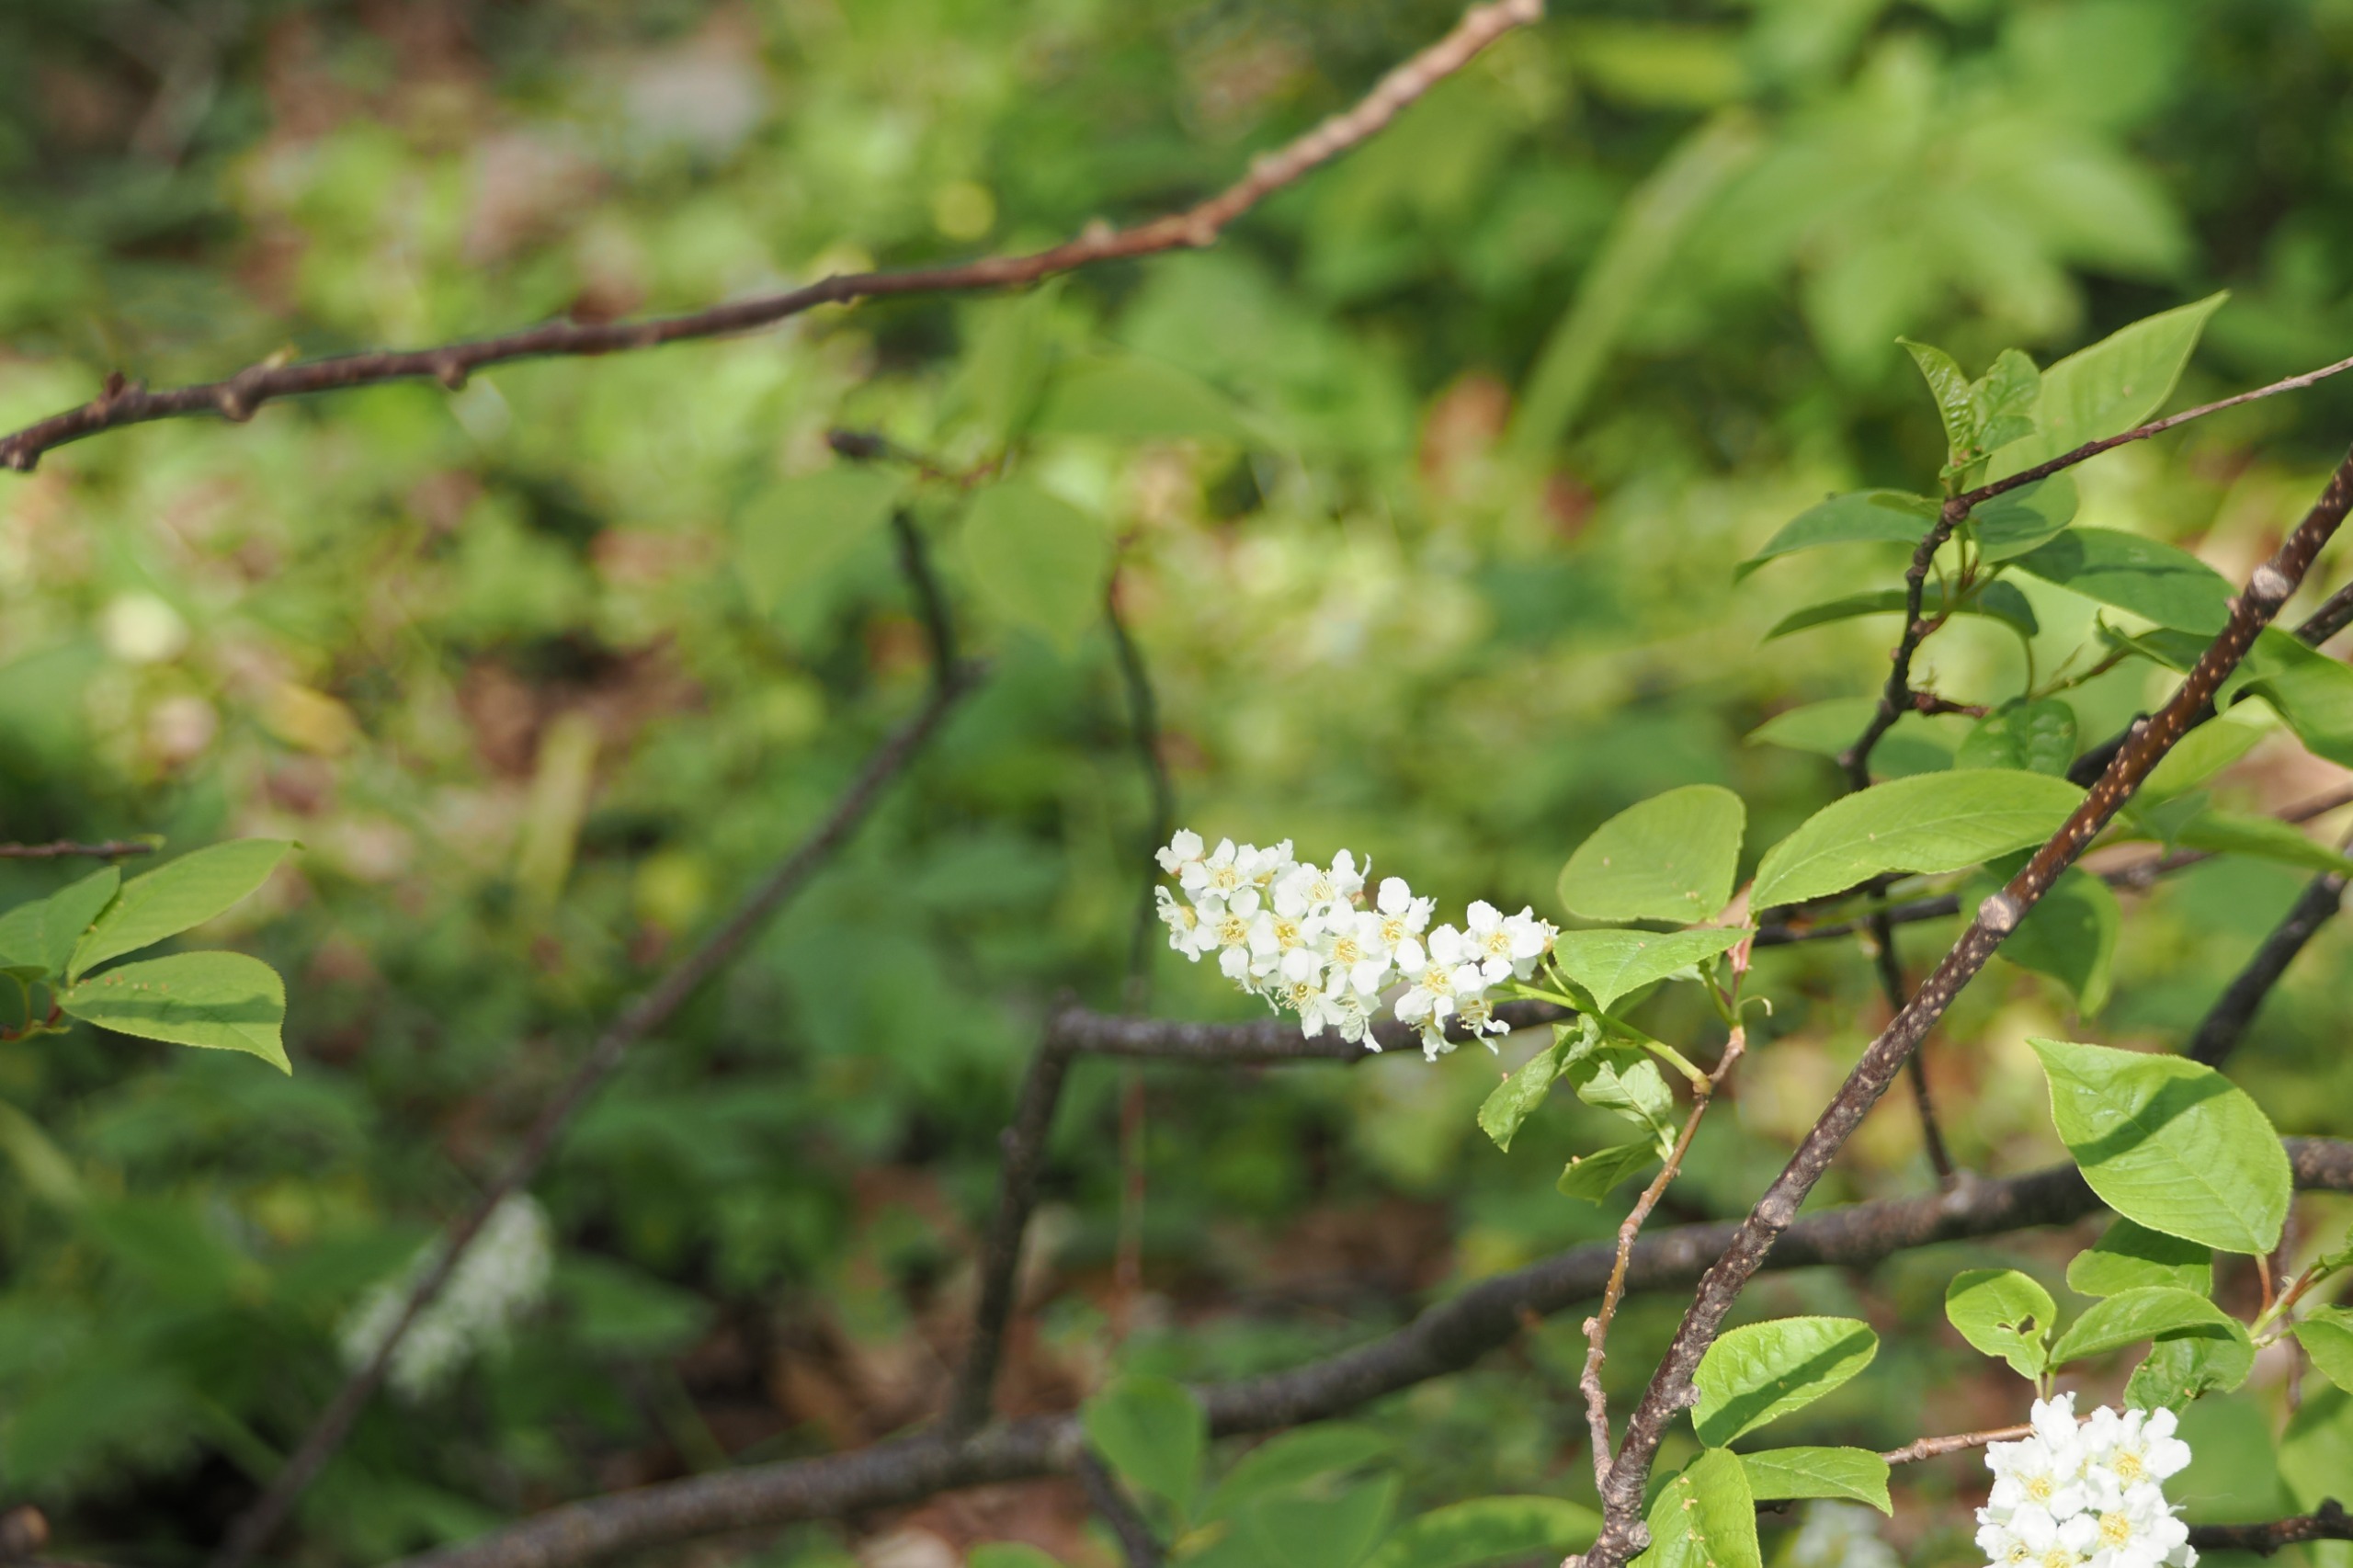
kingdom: Plantae
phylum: Tracheophyta
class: Magnoliopsida
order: Rosales
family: Rosaceae
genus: Prunus
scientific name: Prunus padus
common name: Almindelig hæg
